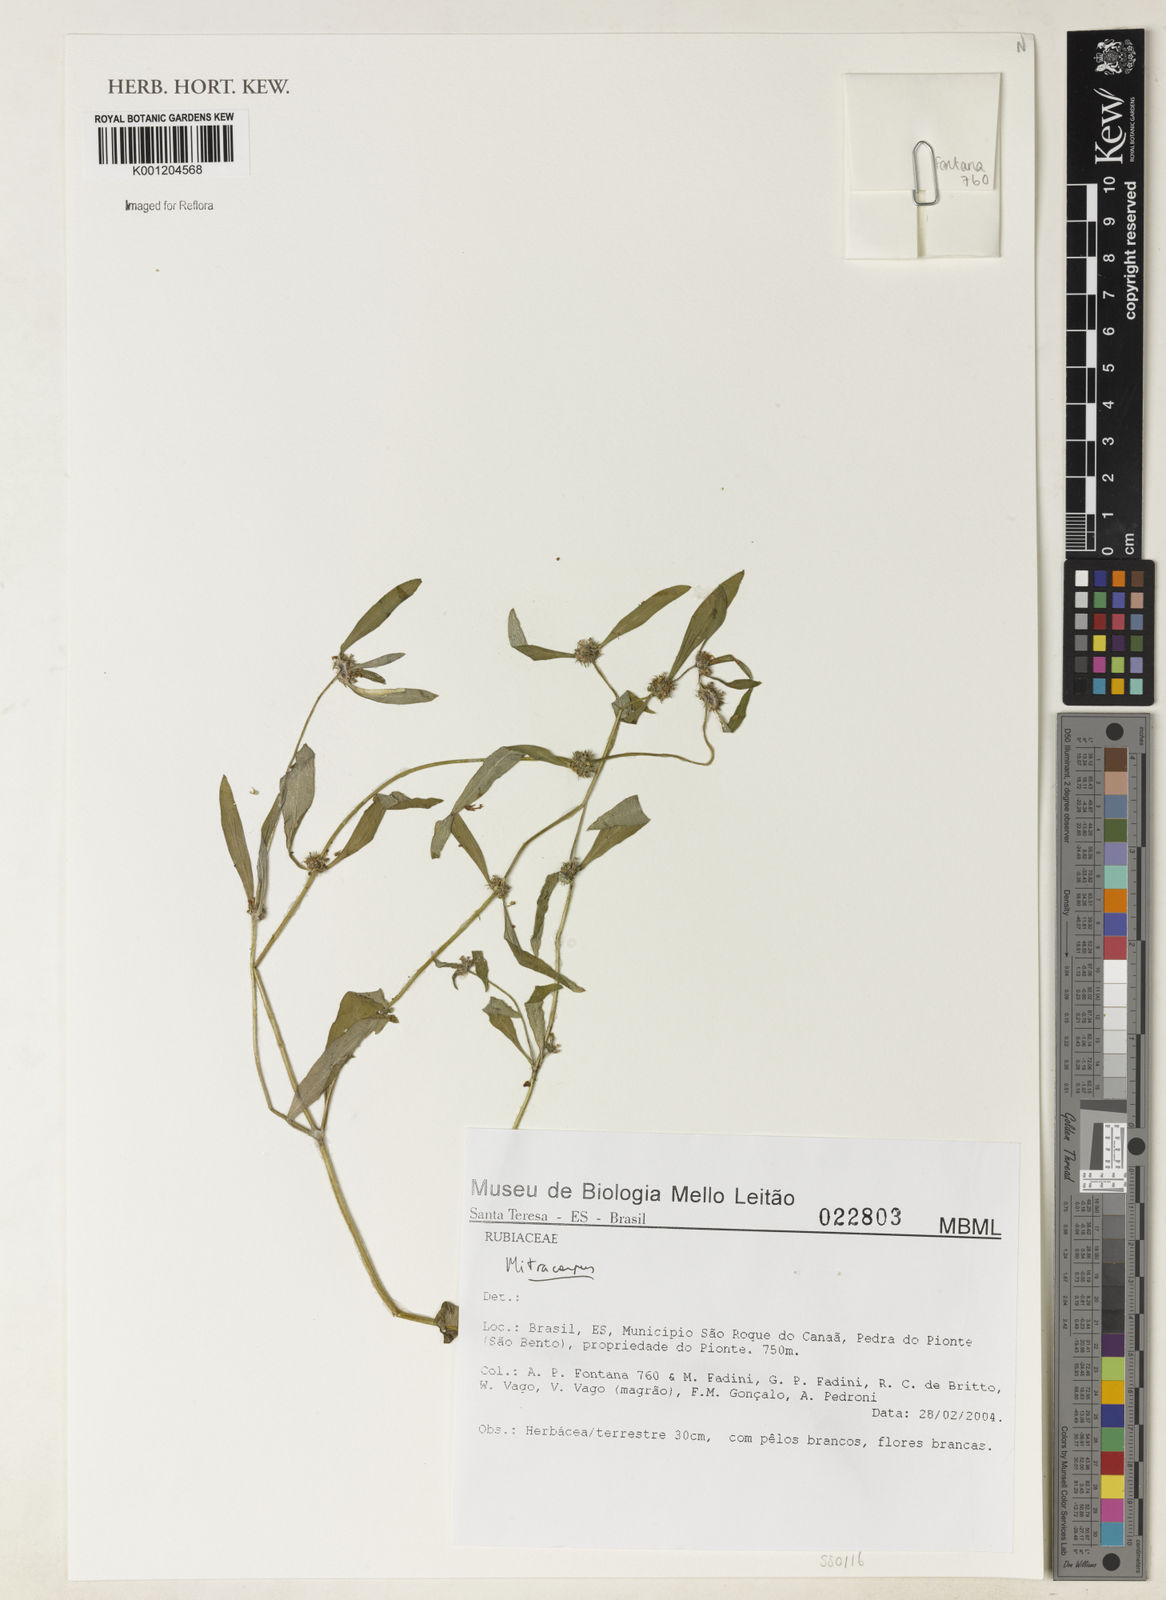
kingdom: Plantae
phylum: Tracheophyta
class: Magnoliopsida
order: Gentianales
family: Rubiaceae
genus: Mitracarpus
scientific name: Mitracarpus
